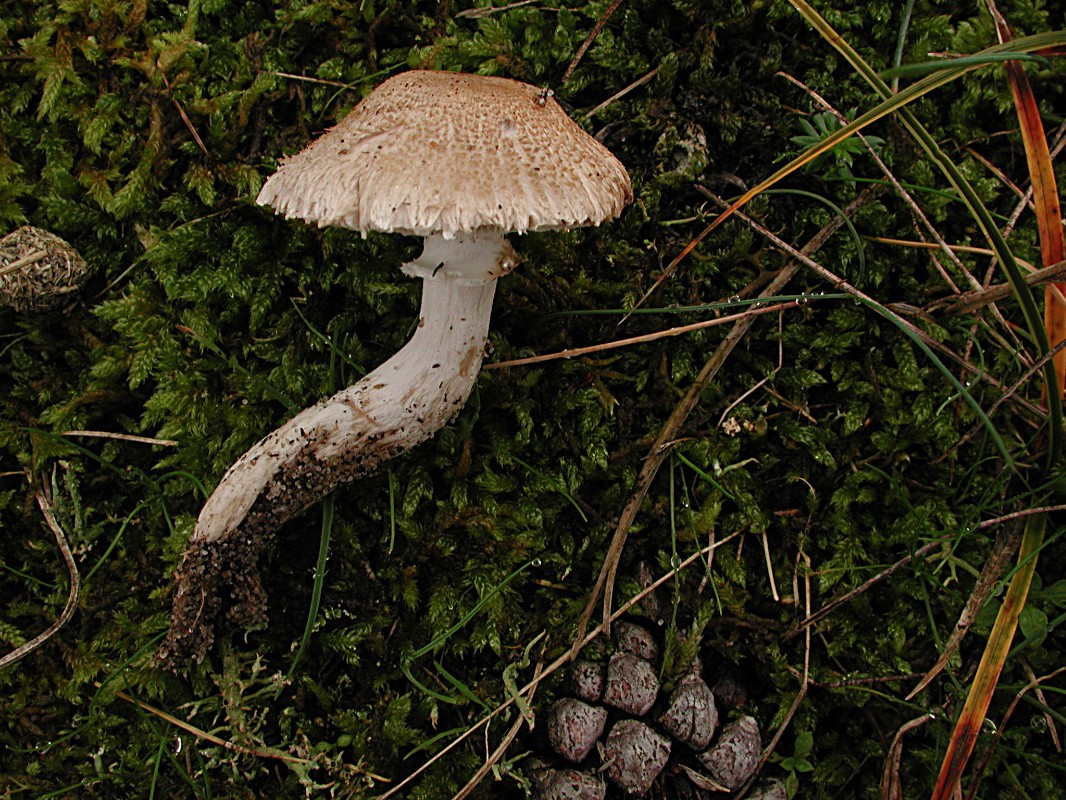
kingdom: Fungi
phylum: Basidiomycota
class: Agaricomycetes
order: Agaricales
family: Agaricaceae
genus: Leucoagaricus
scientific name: Leucoagaricus barssii
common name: gråfibret silkehat
